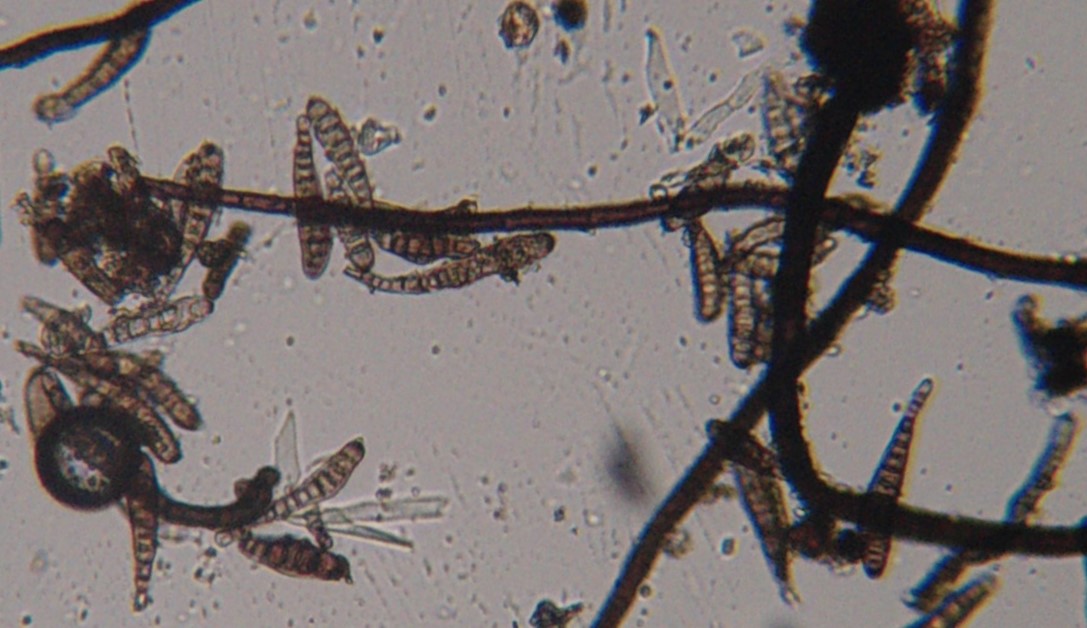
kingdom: Fungi
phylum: Ascomycota
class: Dothideomycetes
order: Pleosporales
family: Massarinaceae
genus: Helminthosporium
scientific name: Helminthosporium velutinum
